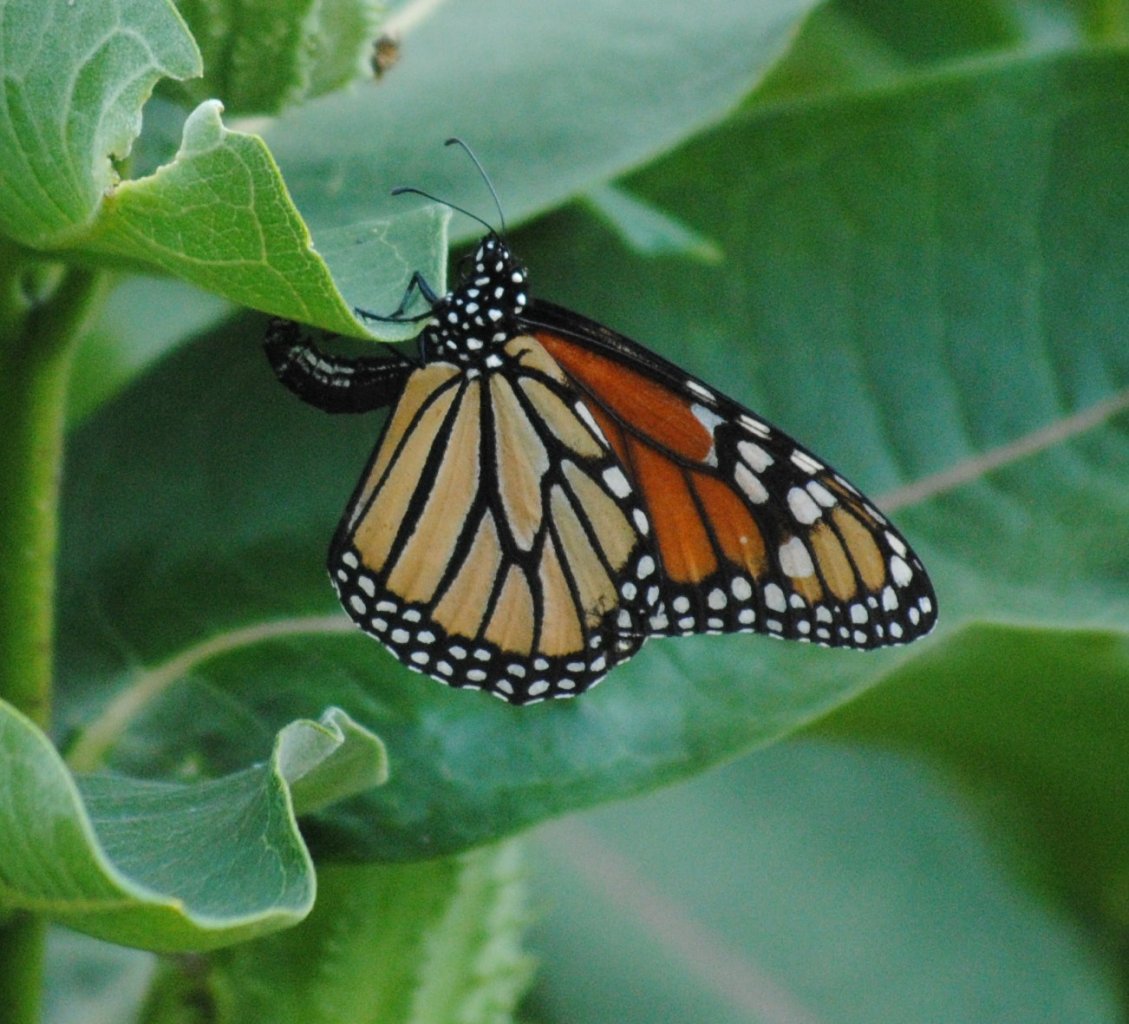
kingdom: Animalia
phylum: Arthropoda
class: Insecta
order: Lepidoptera
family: Nymphalidae
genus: Danaus
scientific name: Danaus plexippus
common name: Monarch
